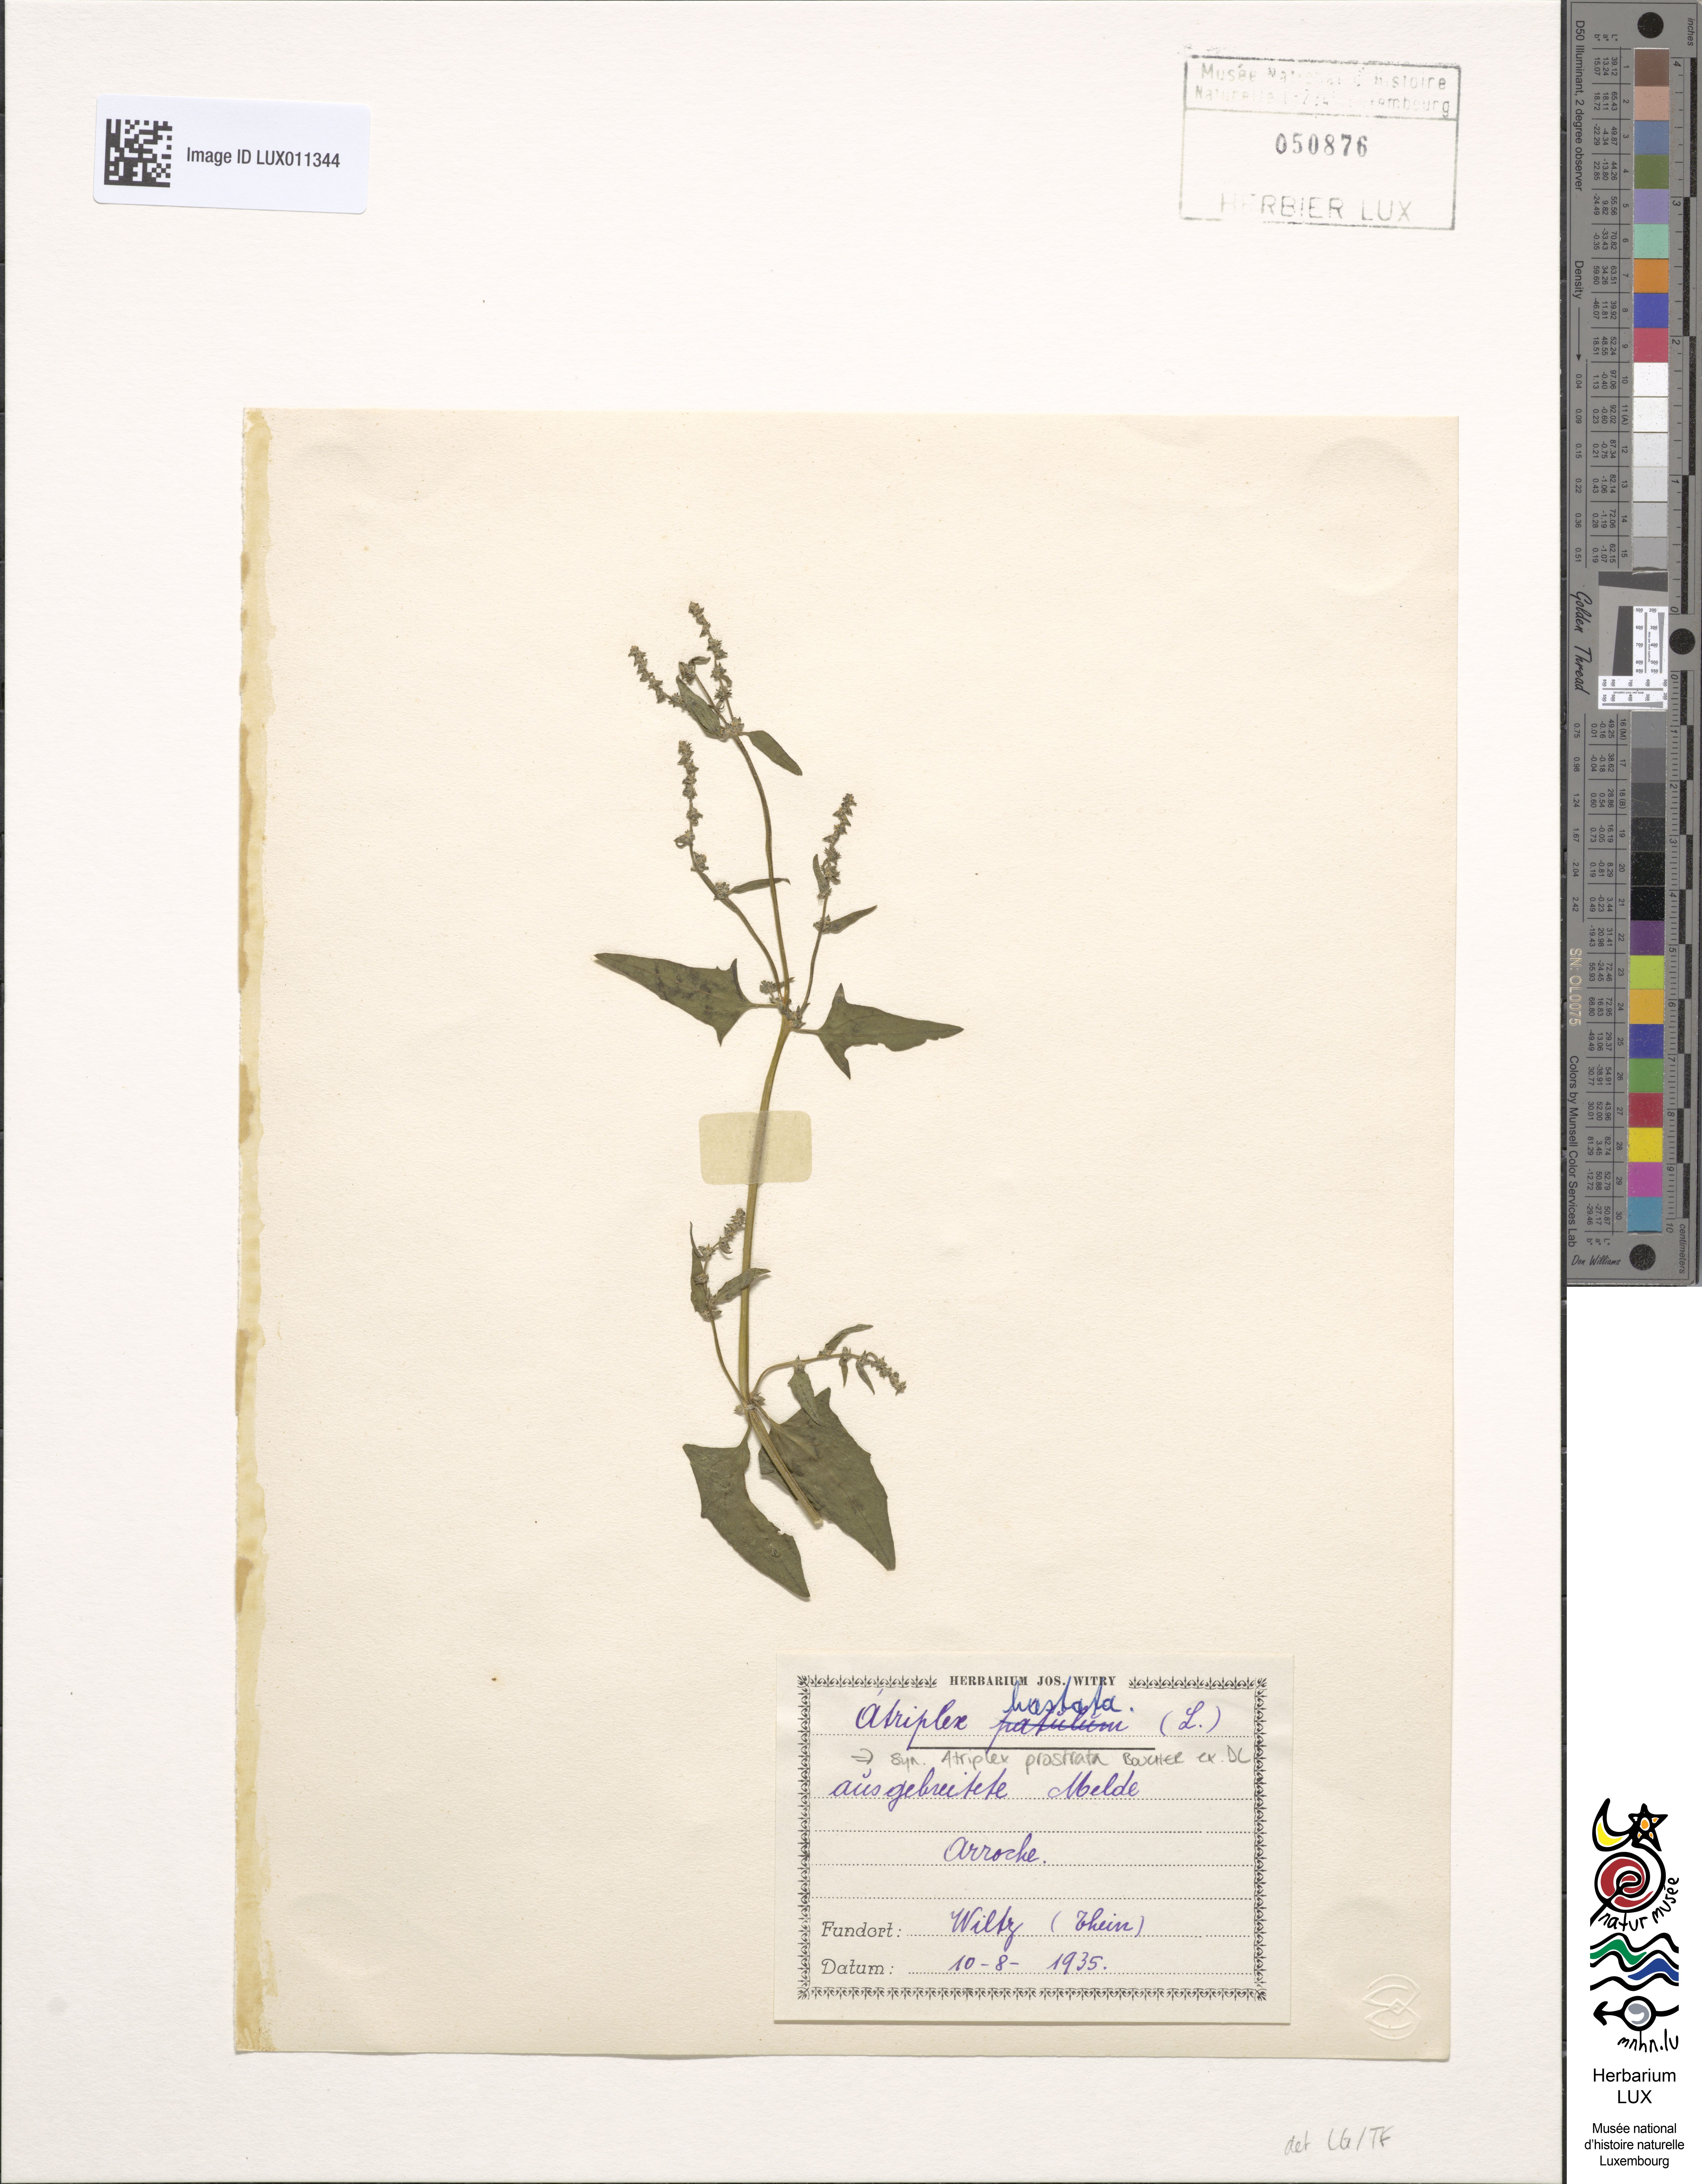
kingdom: Plantae
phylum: Tracheophyta
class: Magnoliopsida
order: Caryophyllales
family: Amaranthaceae
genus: Atriplex
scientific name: Atriplex prostrata
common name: Spear-leaved orache
